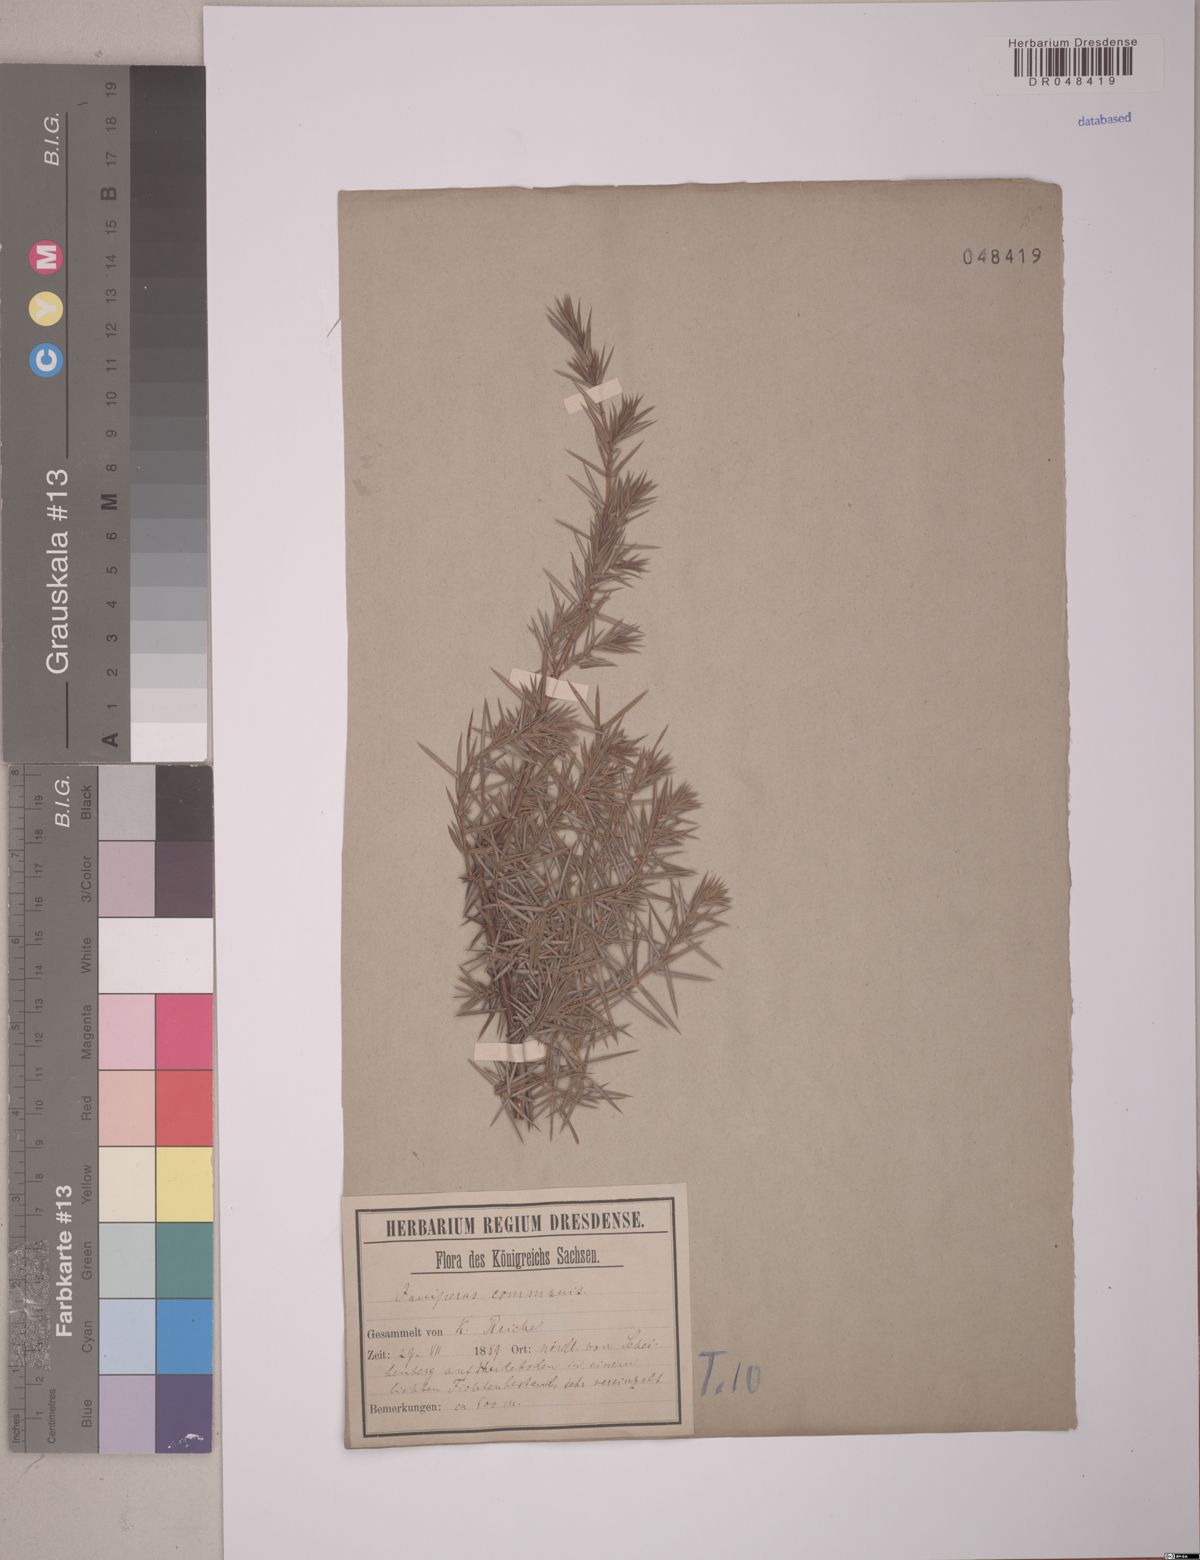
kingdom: Plantae
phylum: Tracheophyta
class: Pinopsida
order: Pinales
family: Cupressaceae
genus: Juniperus
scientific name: Juniperus communis
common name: Common juniper
